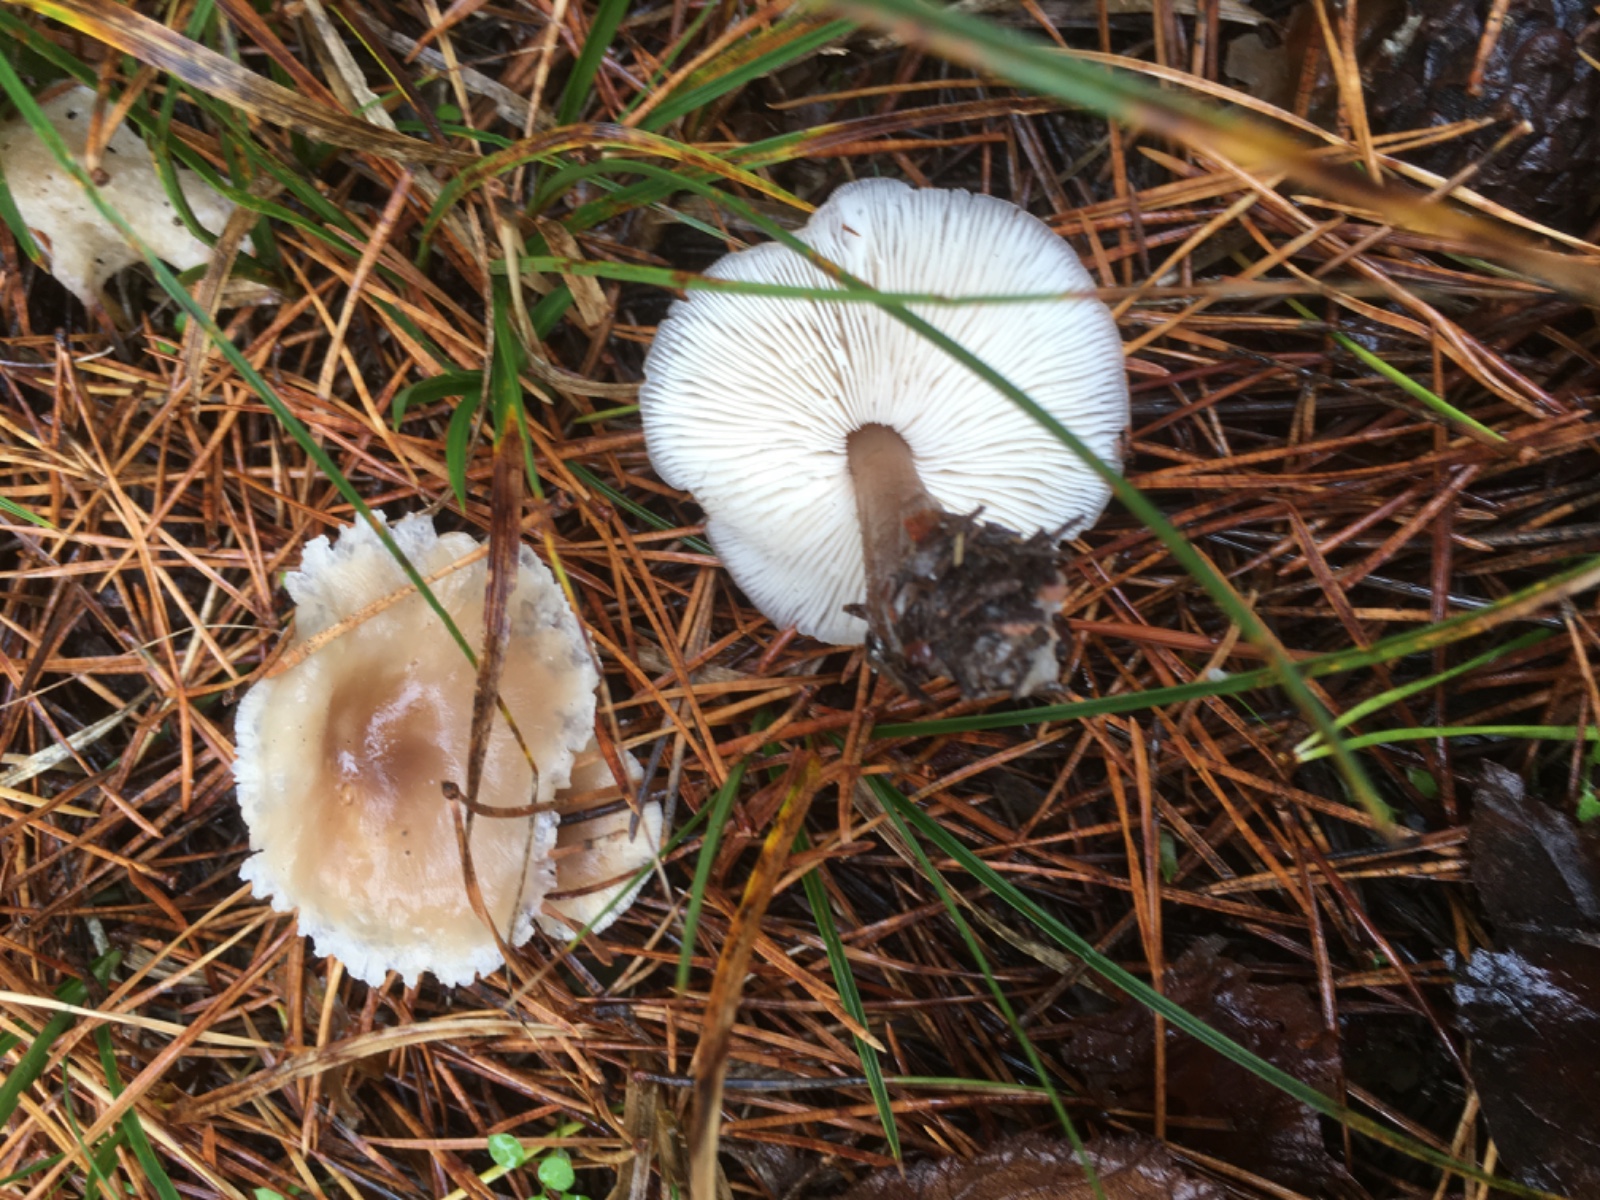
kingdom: Fungi
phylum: Basidiomycota
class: Agaricomycetes
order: Agaricales
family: Omphalotaceae
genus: Rhodocollybia
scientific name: Rhodocollybia asema
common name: horngrå fladhat
